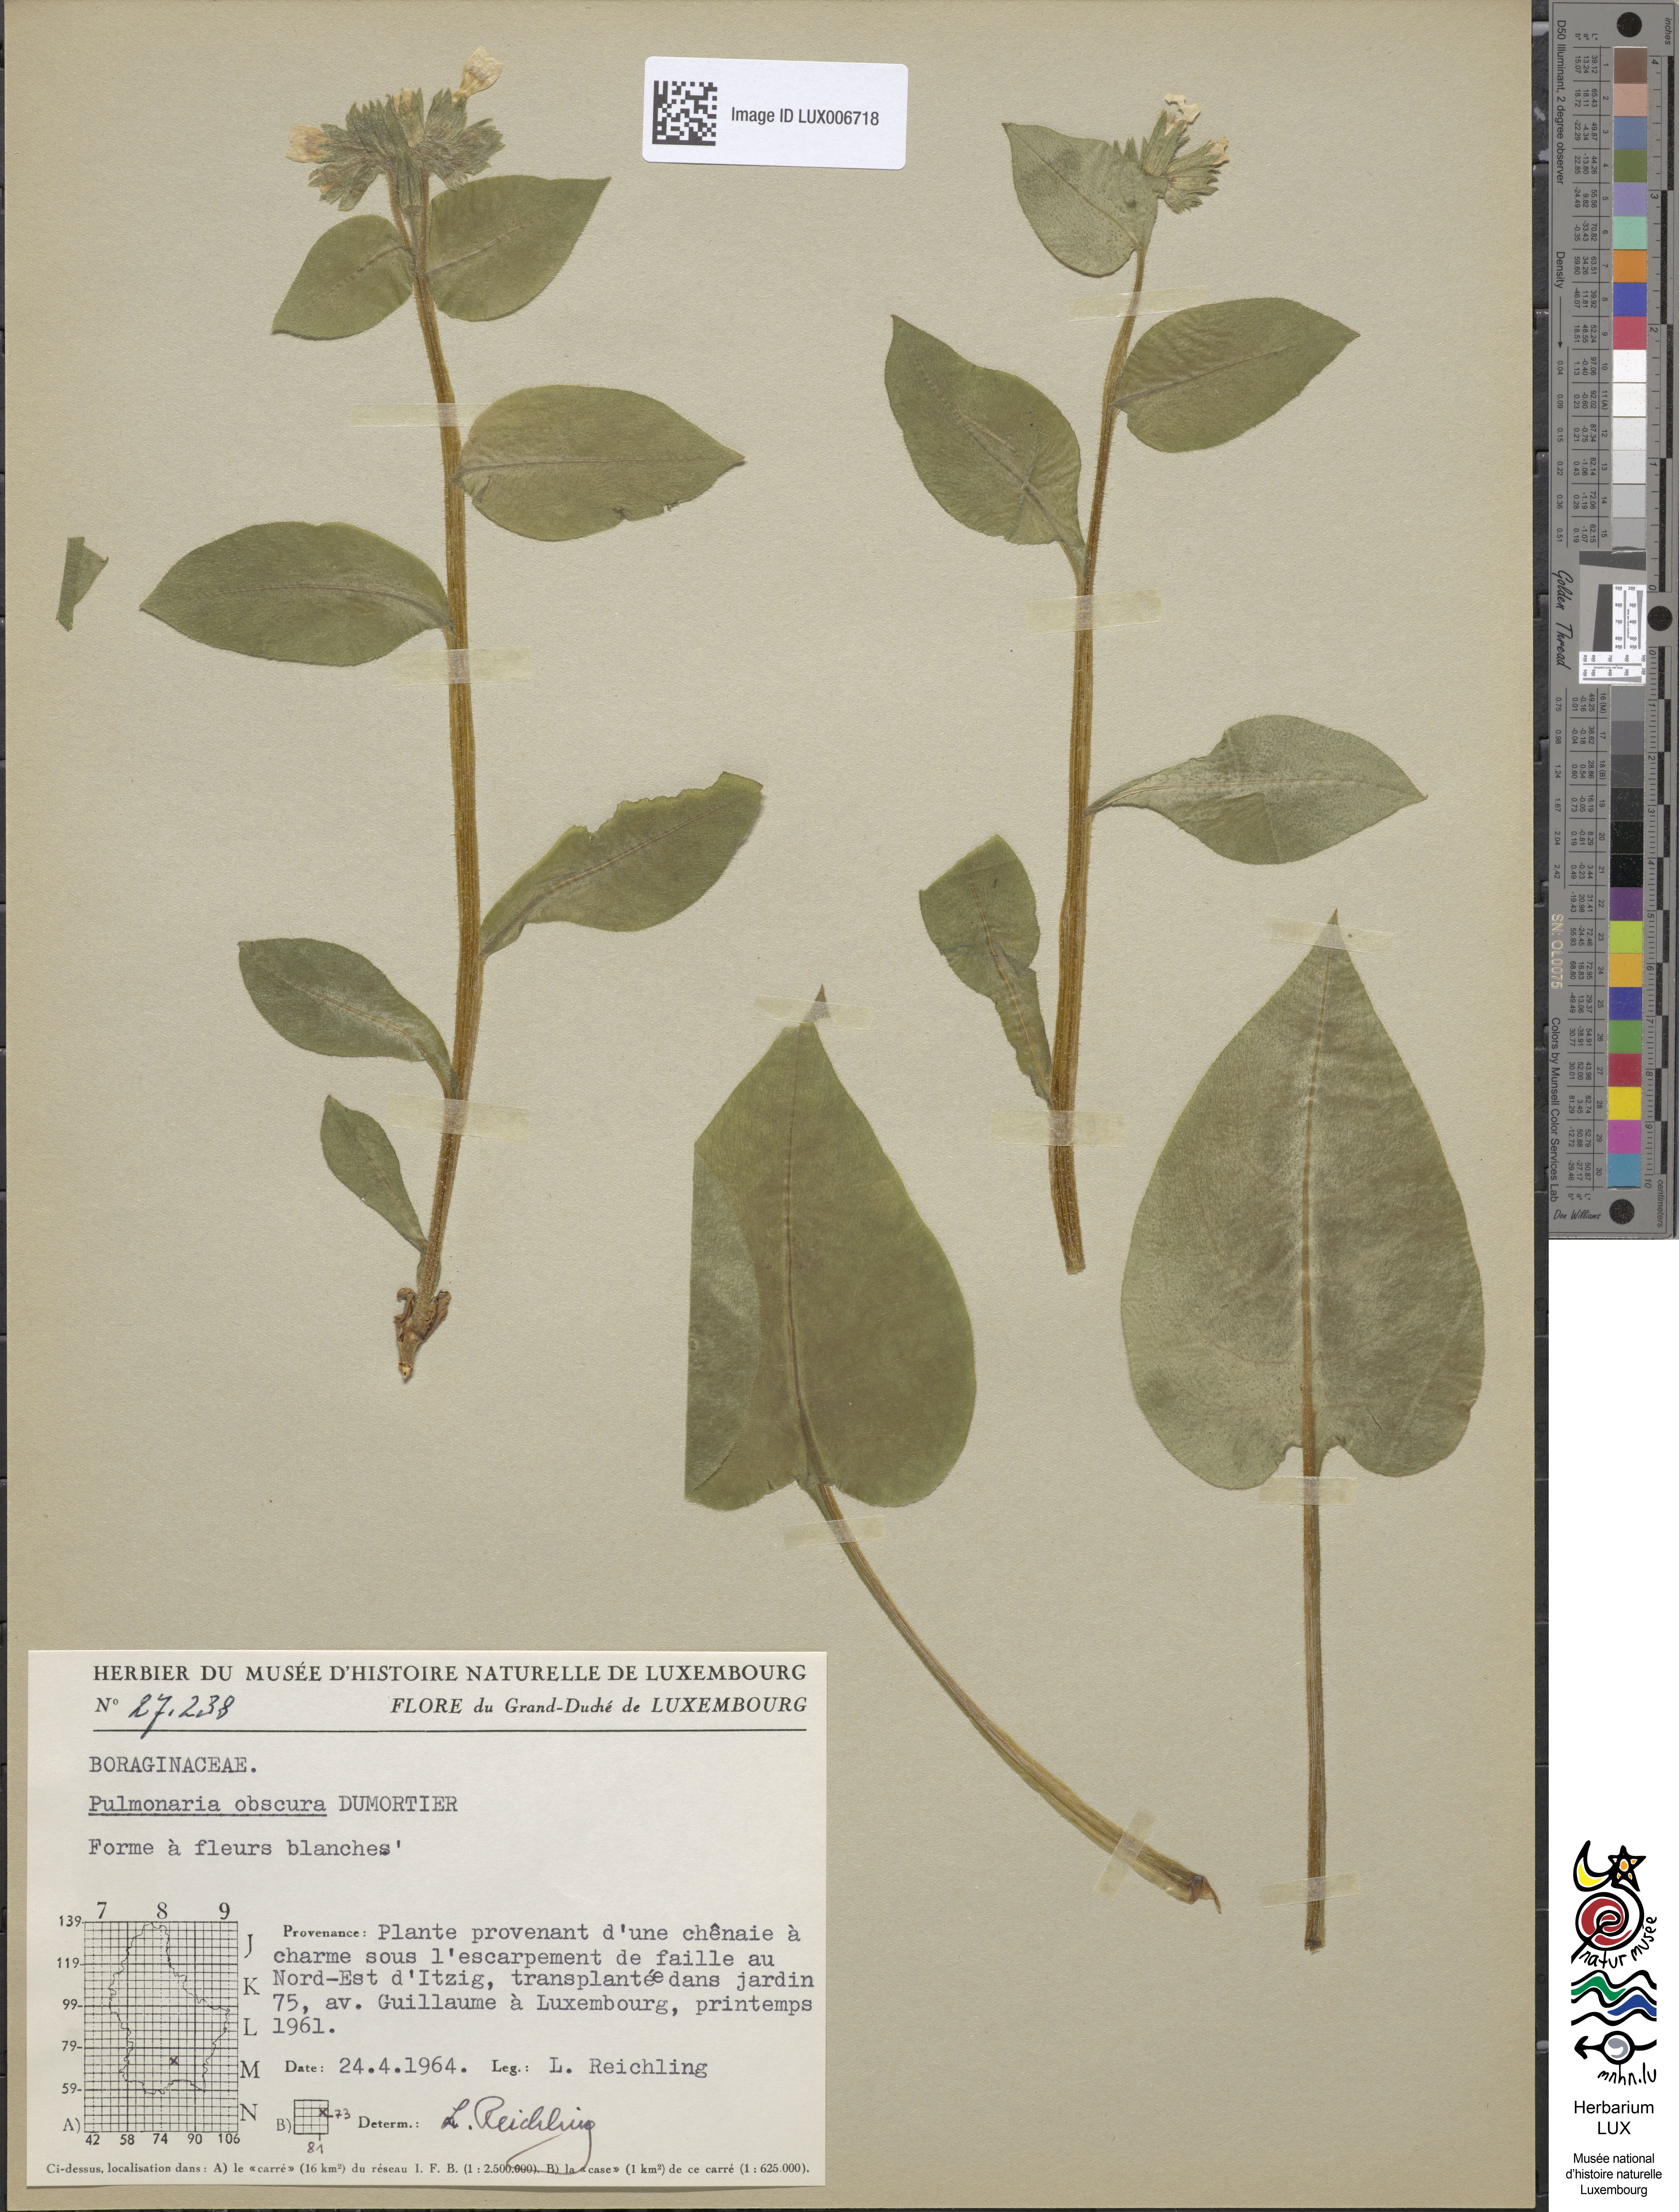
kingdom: Plantae
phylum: Tracheophyta
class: Magnoliopsida
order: Boraginales
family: Boraginaceae
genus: Pulmonaria
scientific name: Pulmonaria obscura
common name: Suffolk lungwort
